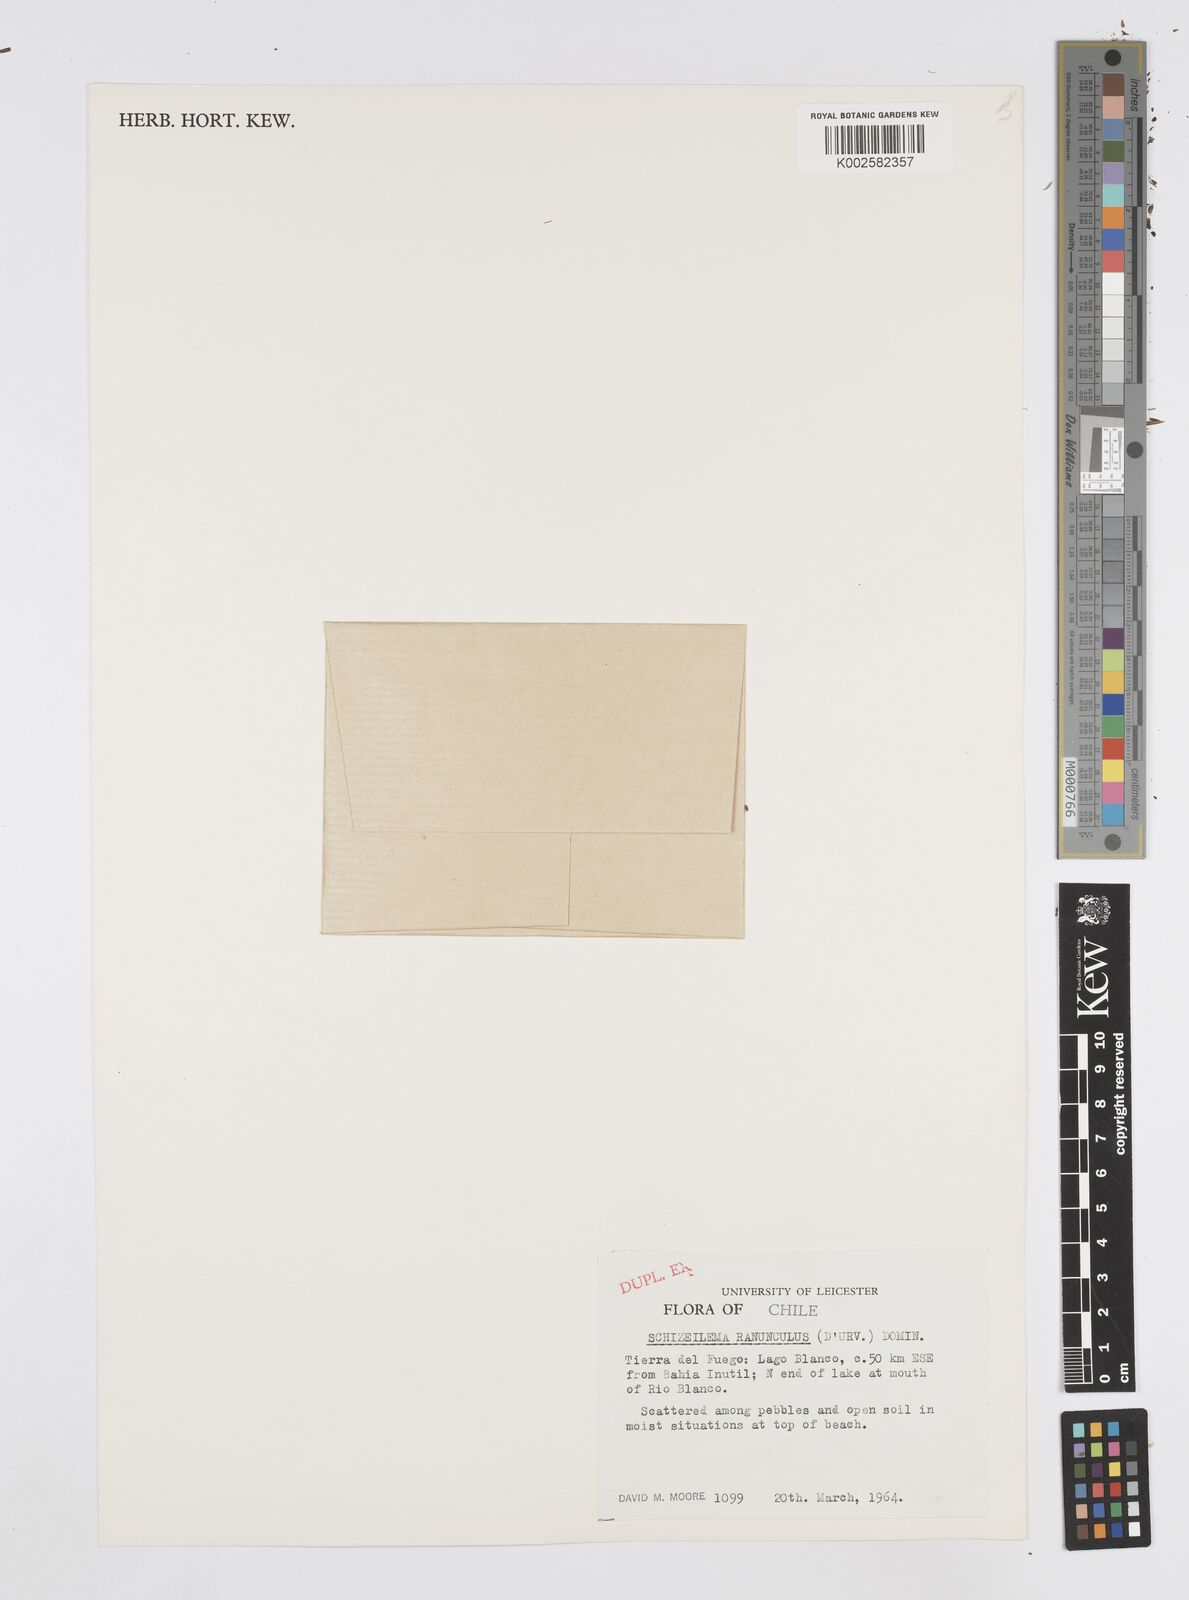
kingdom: Plantae
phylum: Tracheophyta
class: Magnoliopsida
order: Apiales
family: Apiaceae
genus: Azorella
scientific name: Azorella ranunculus
